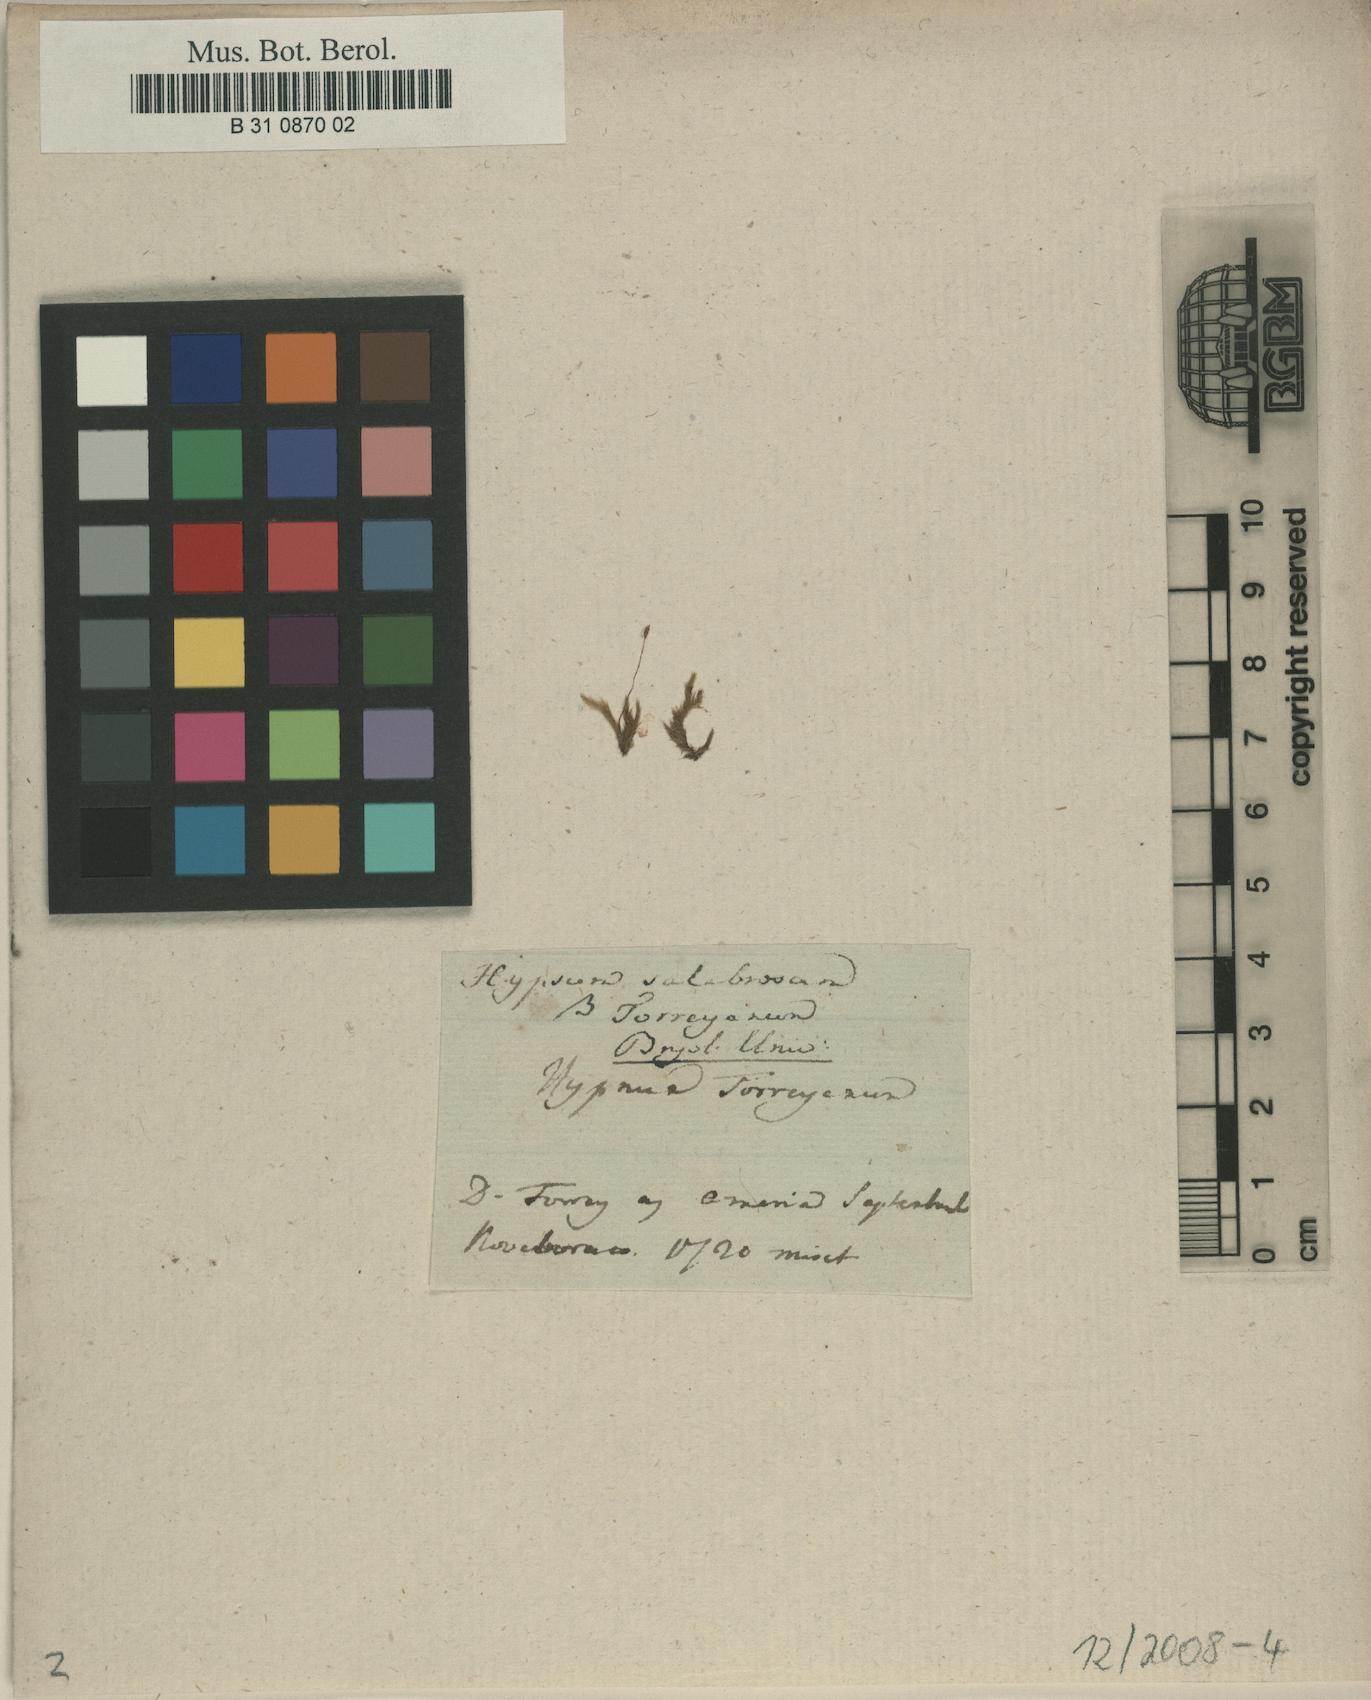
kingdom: Plantae
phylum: Bryophyta
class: Bryopsida
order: Hypnales
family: Brachytheciaceae
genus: Brachythecium
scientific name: Brachythecium salebrosum
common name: Smooth-stalk feather-moss
